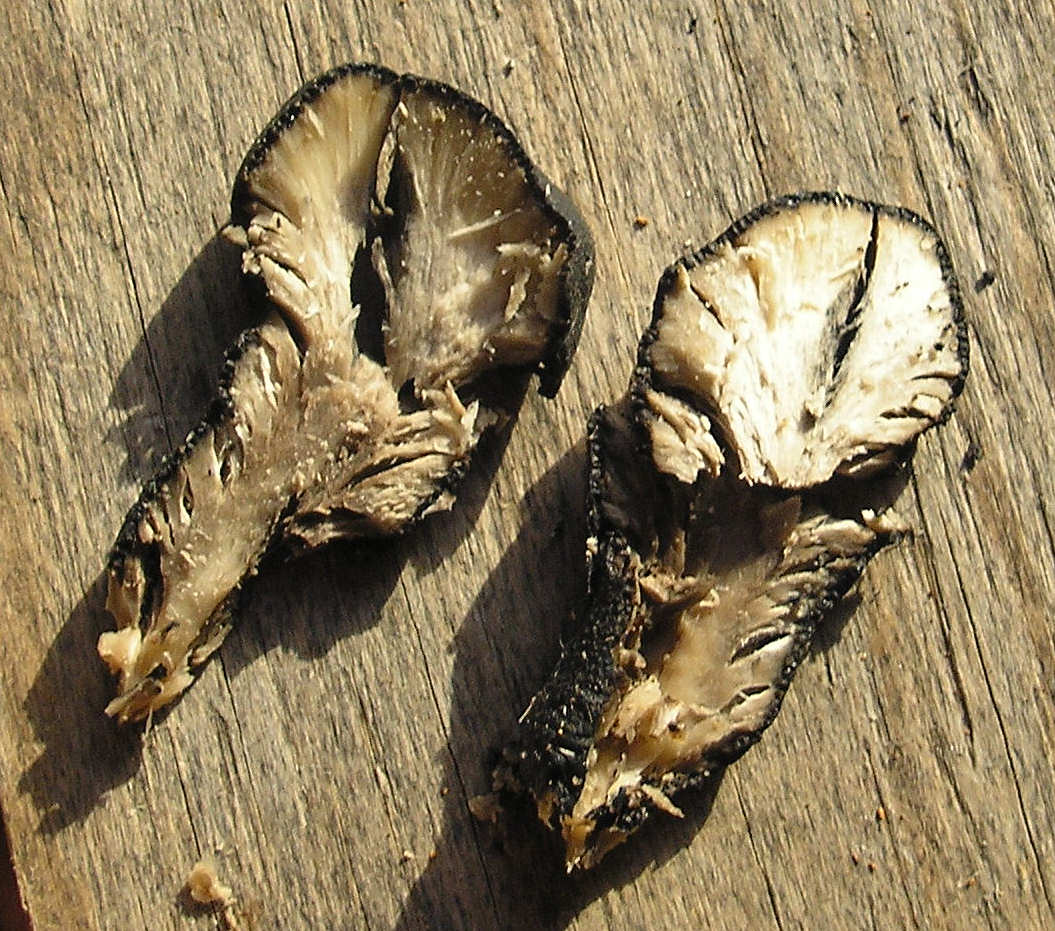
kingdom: Fungi
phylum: Ascomycota
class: Sordariomycetes
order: Xylariales
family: Xylariaceae
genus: Xylaria
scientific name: Xylaria polymorpha
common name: kølle-stødsvamp
